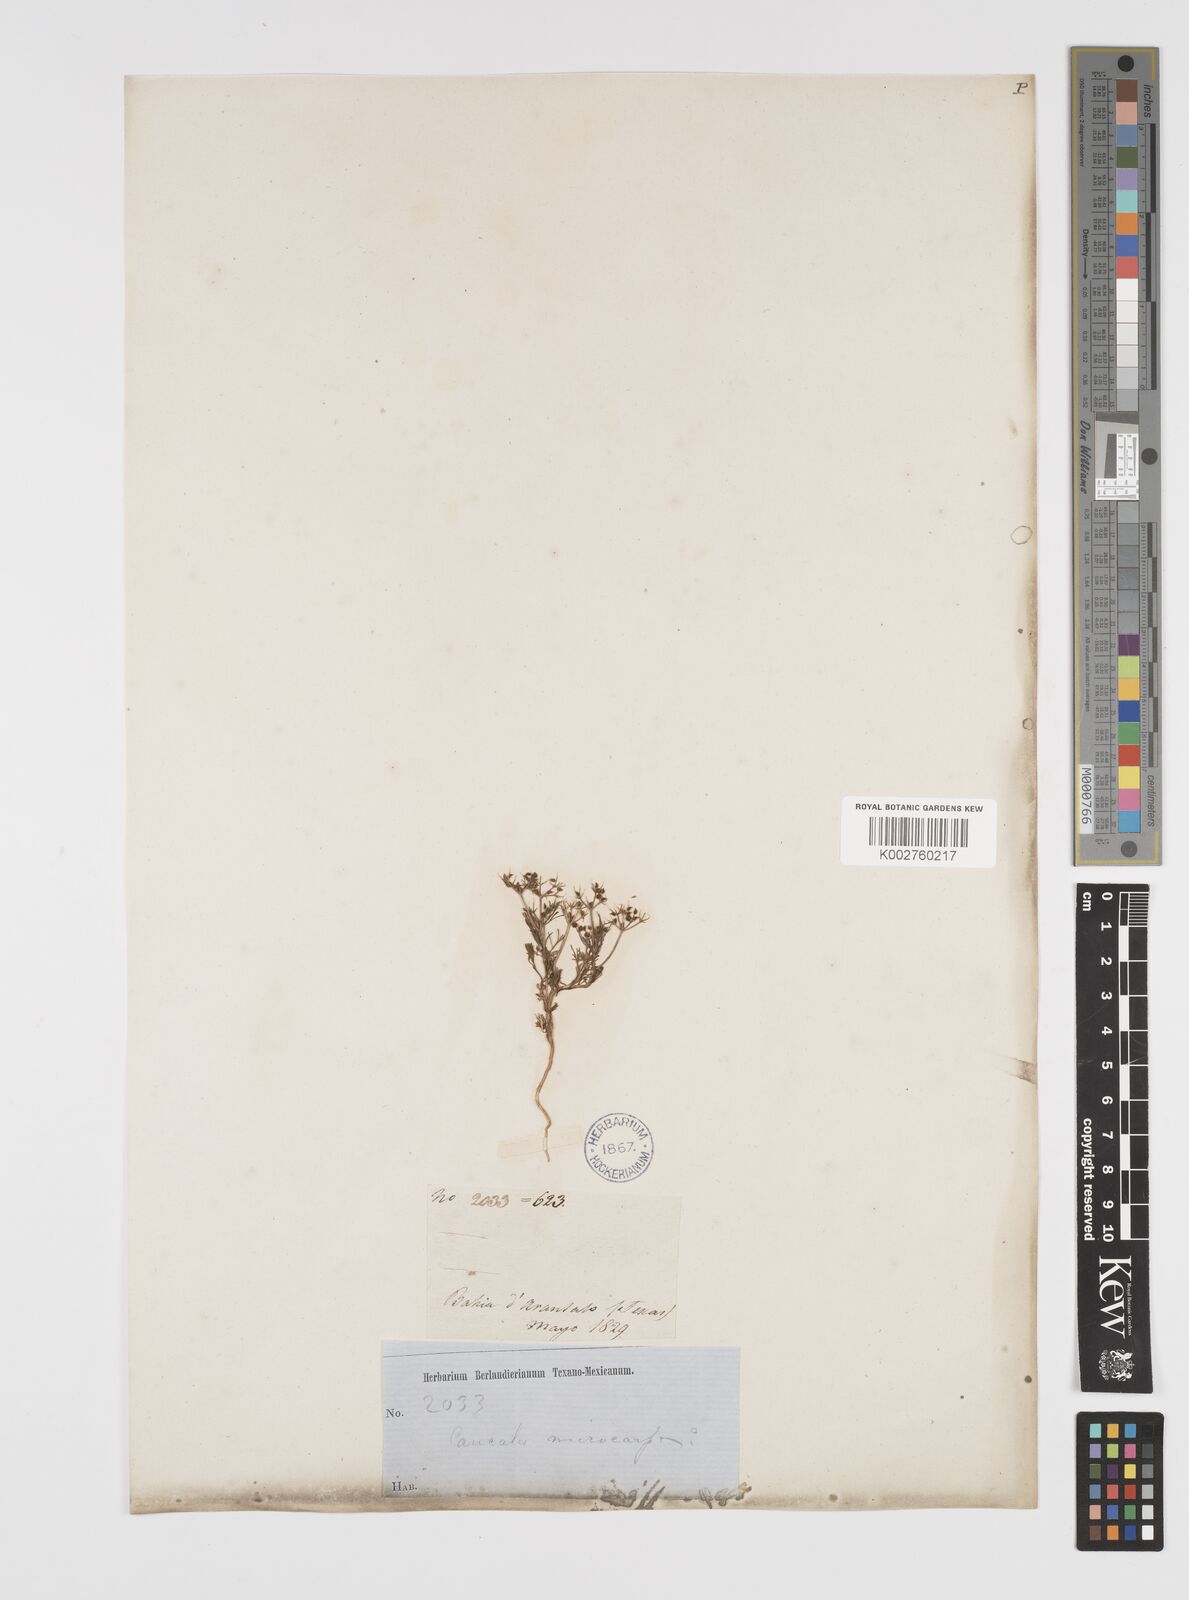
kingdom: Plantae
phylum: Tracheophyta
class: Magnoliopsida
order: Apiales
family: Apiaceae
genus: Spermolepis
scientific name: Spermolepis echinata
